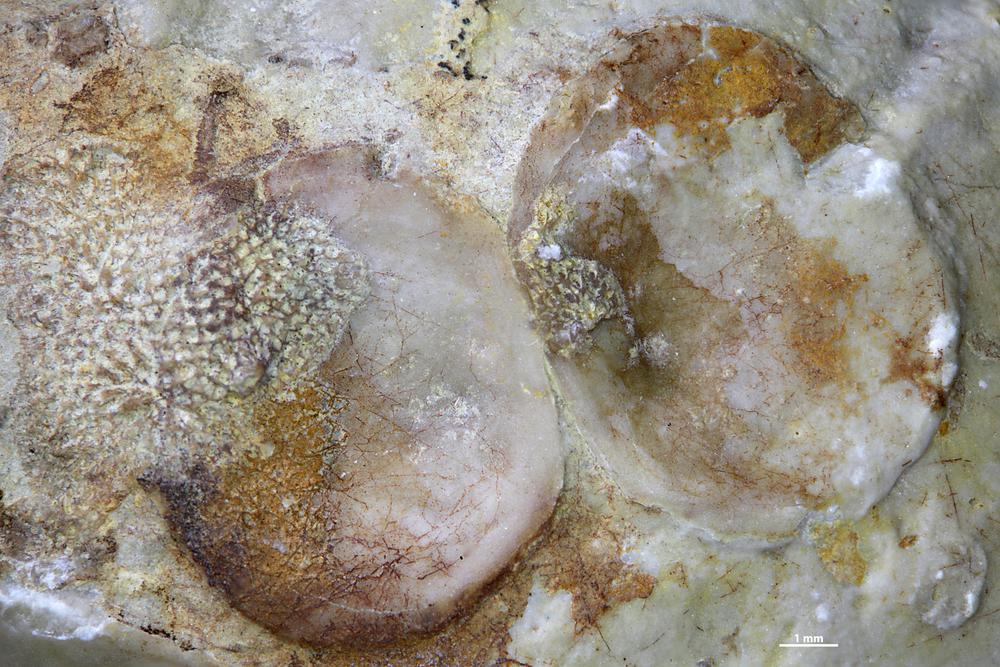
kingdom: Animalia
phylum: Brachiopoda
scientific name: Brachiopoda
